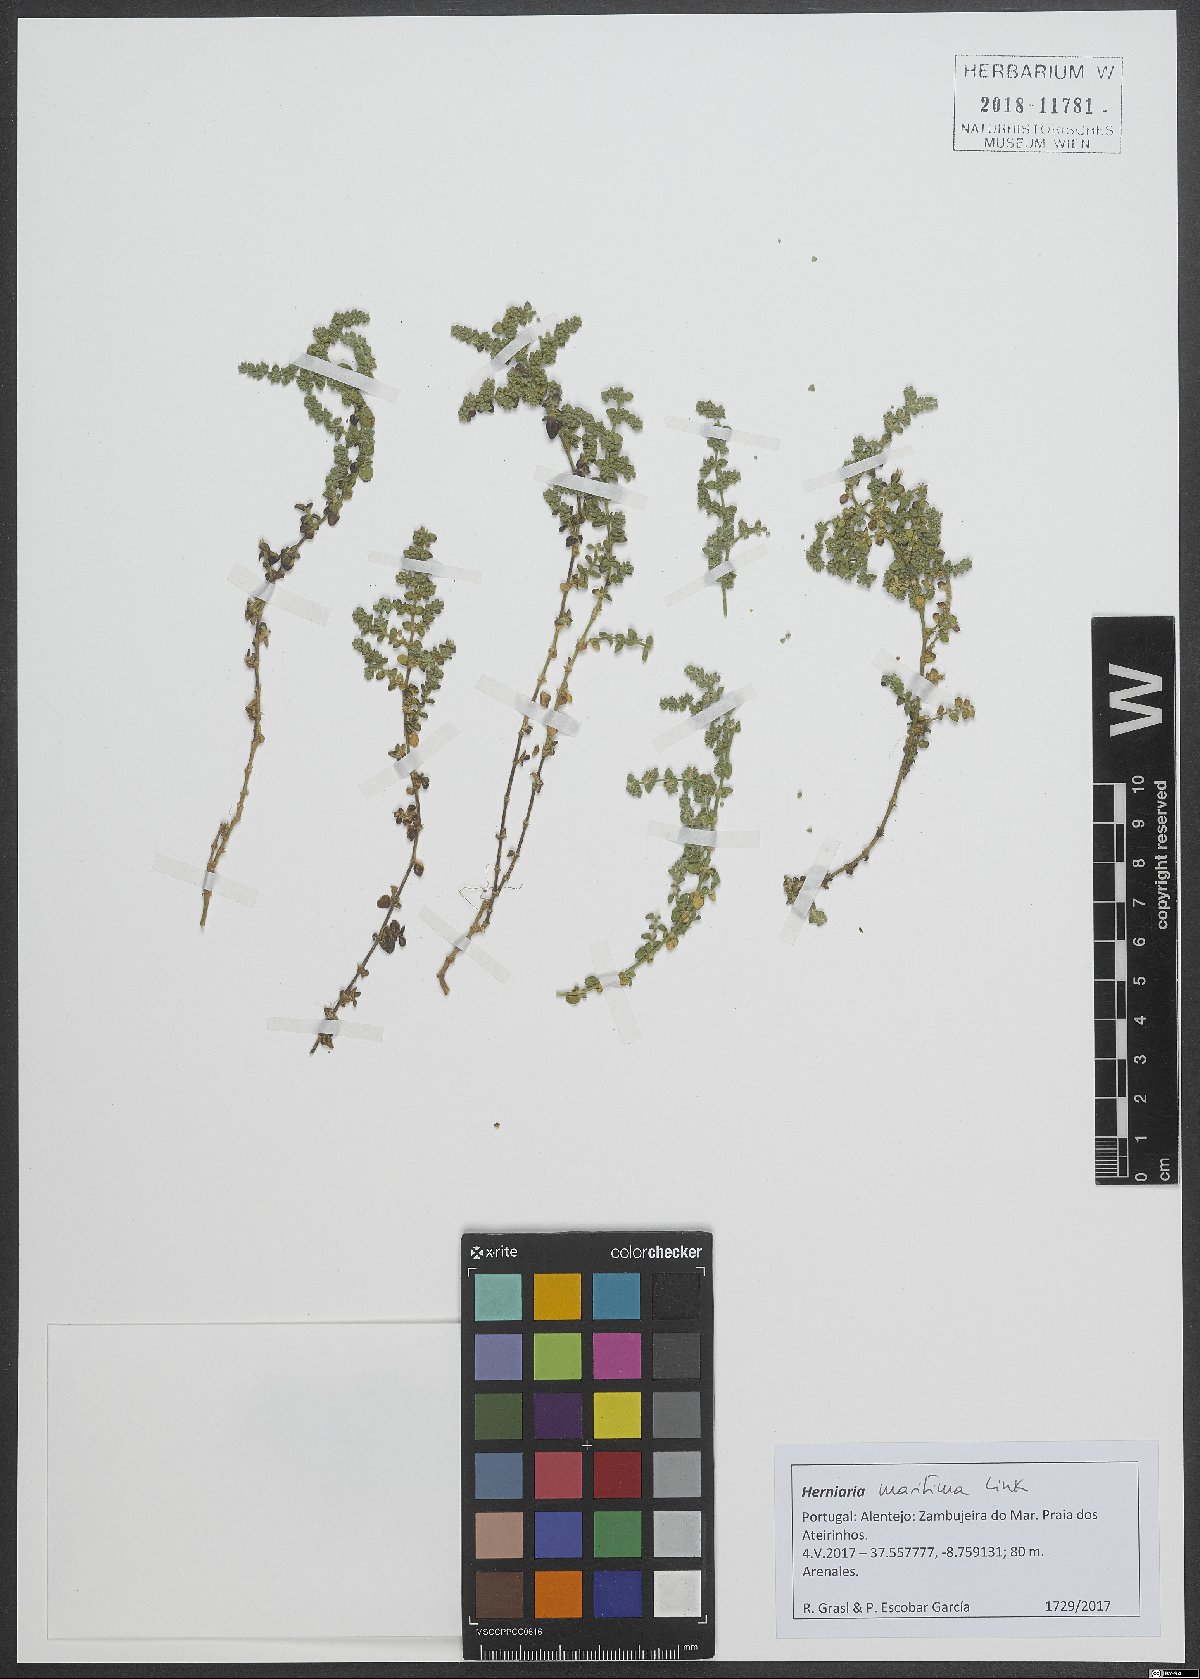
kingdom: Plantae
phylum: Tracheophyta
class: Magnoliopsida
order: Caryophyllales
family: Caryophyllaceae
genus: Herniaria
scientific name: Herniaria maritima
